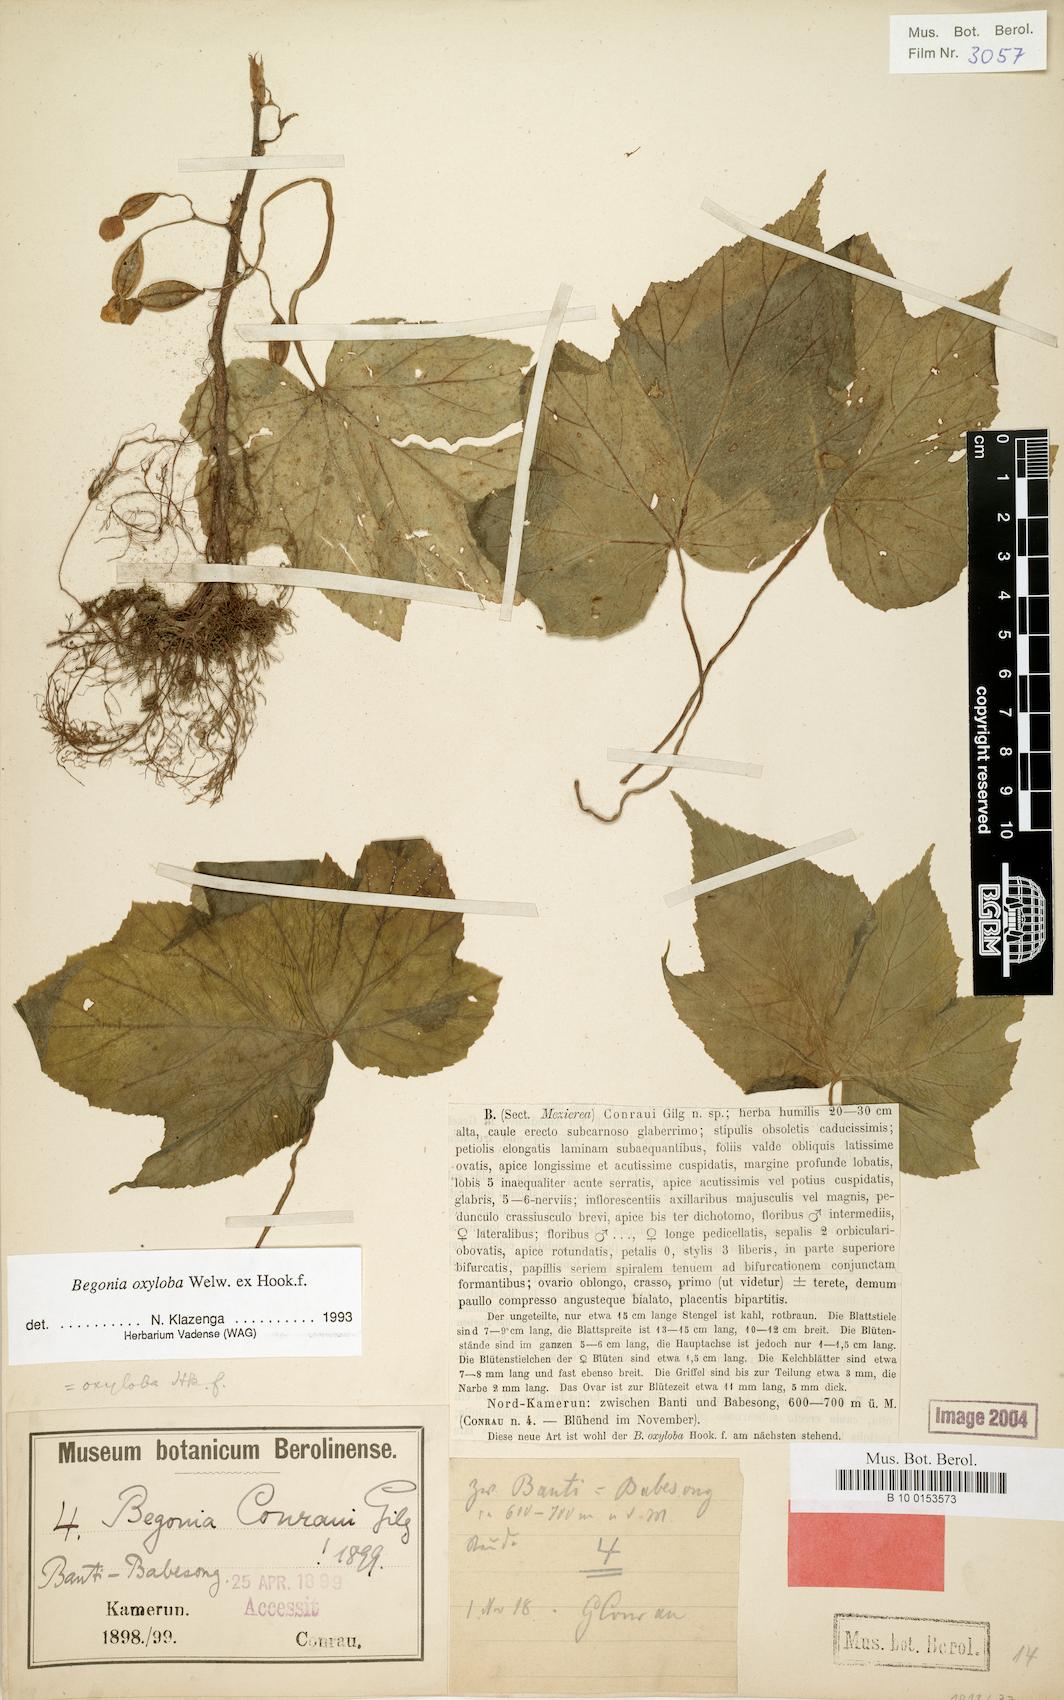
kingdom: Plantae
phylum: Tracheophyta
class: Magnoliopsida
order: Cucurbitales
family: Begoniaceae
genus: Begonia
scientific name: Begonia oxyloba
